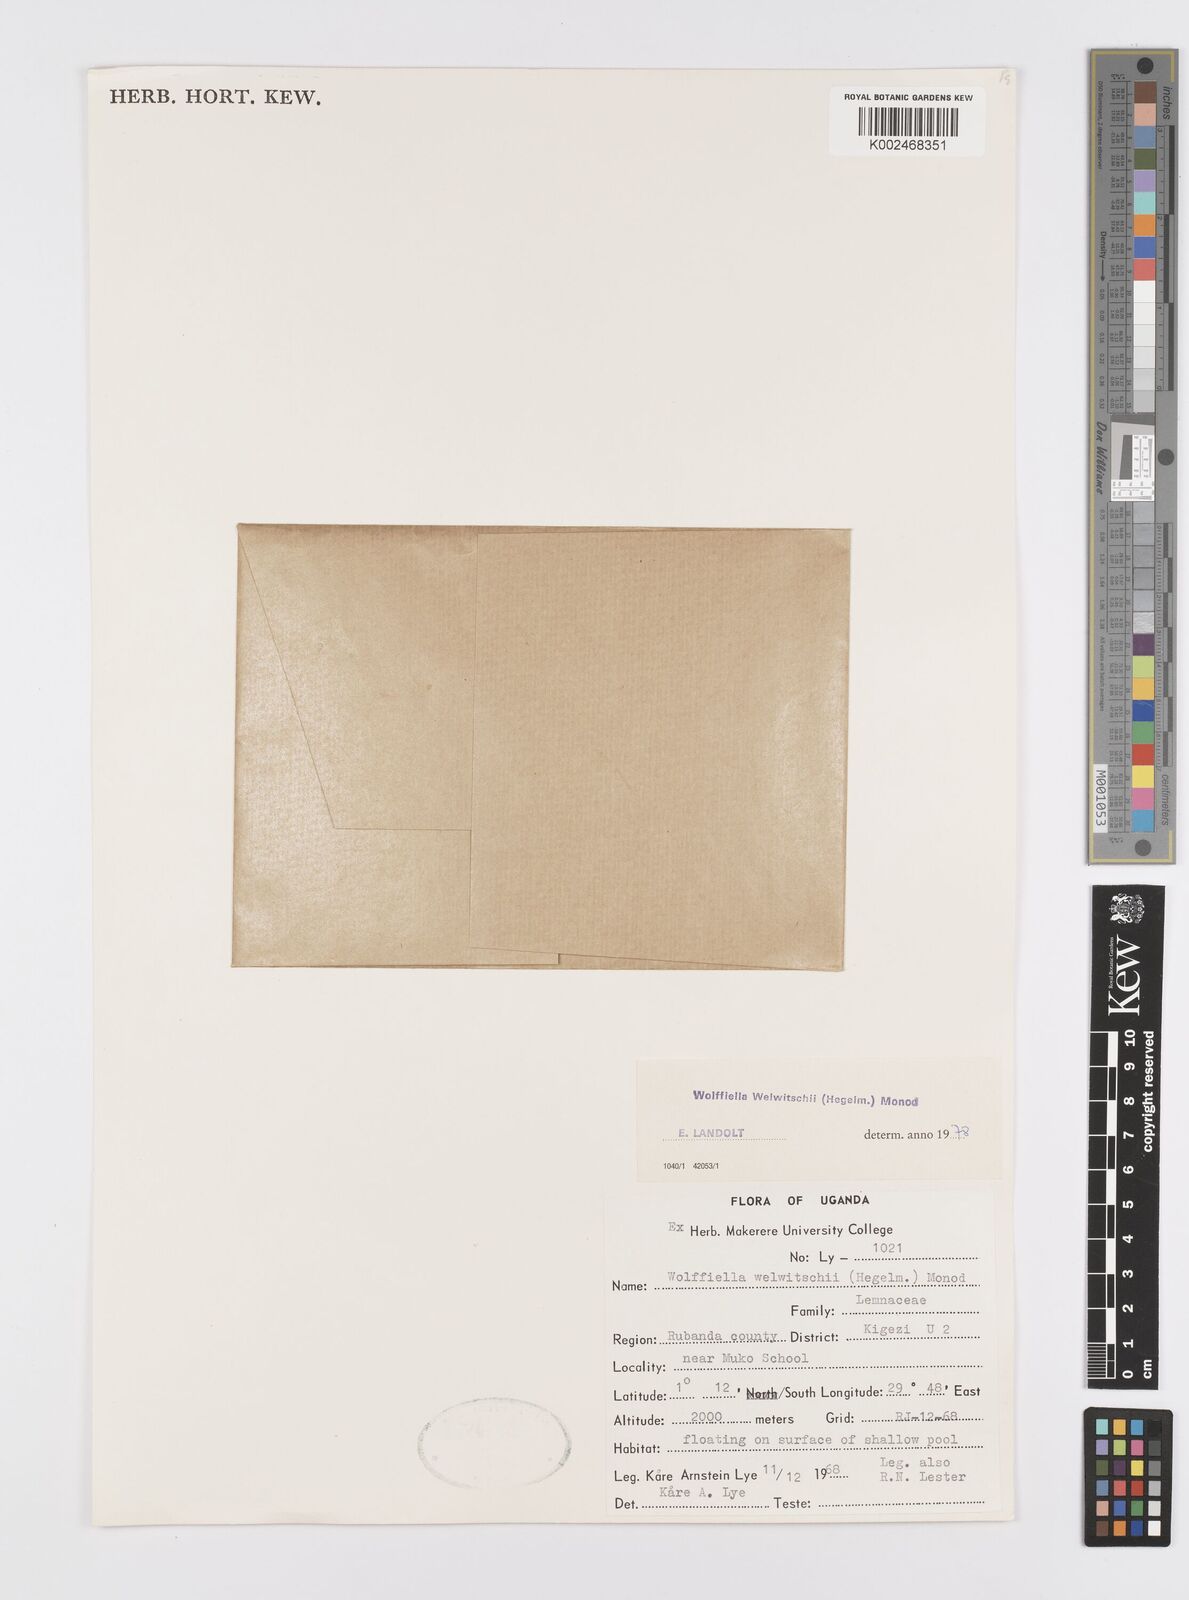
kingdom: Plantae
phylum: Tracheophyta
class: Liliopsida
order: Alismatales
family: Araceae
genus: Wolffiella
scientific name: Wolffiella welwitschii
